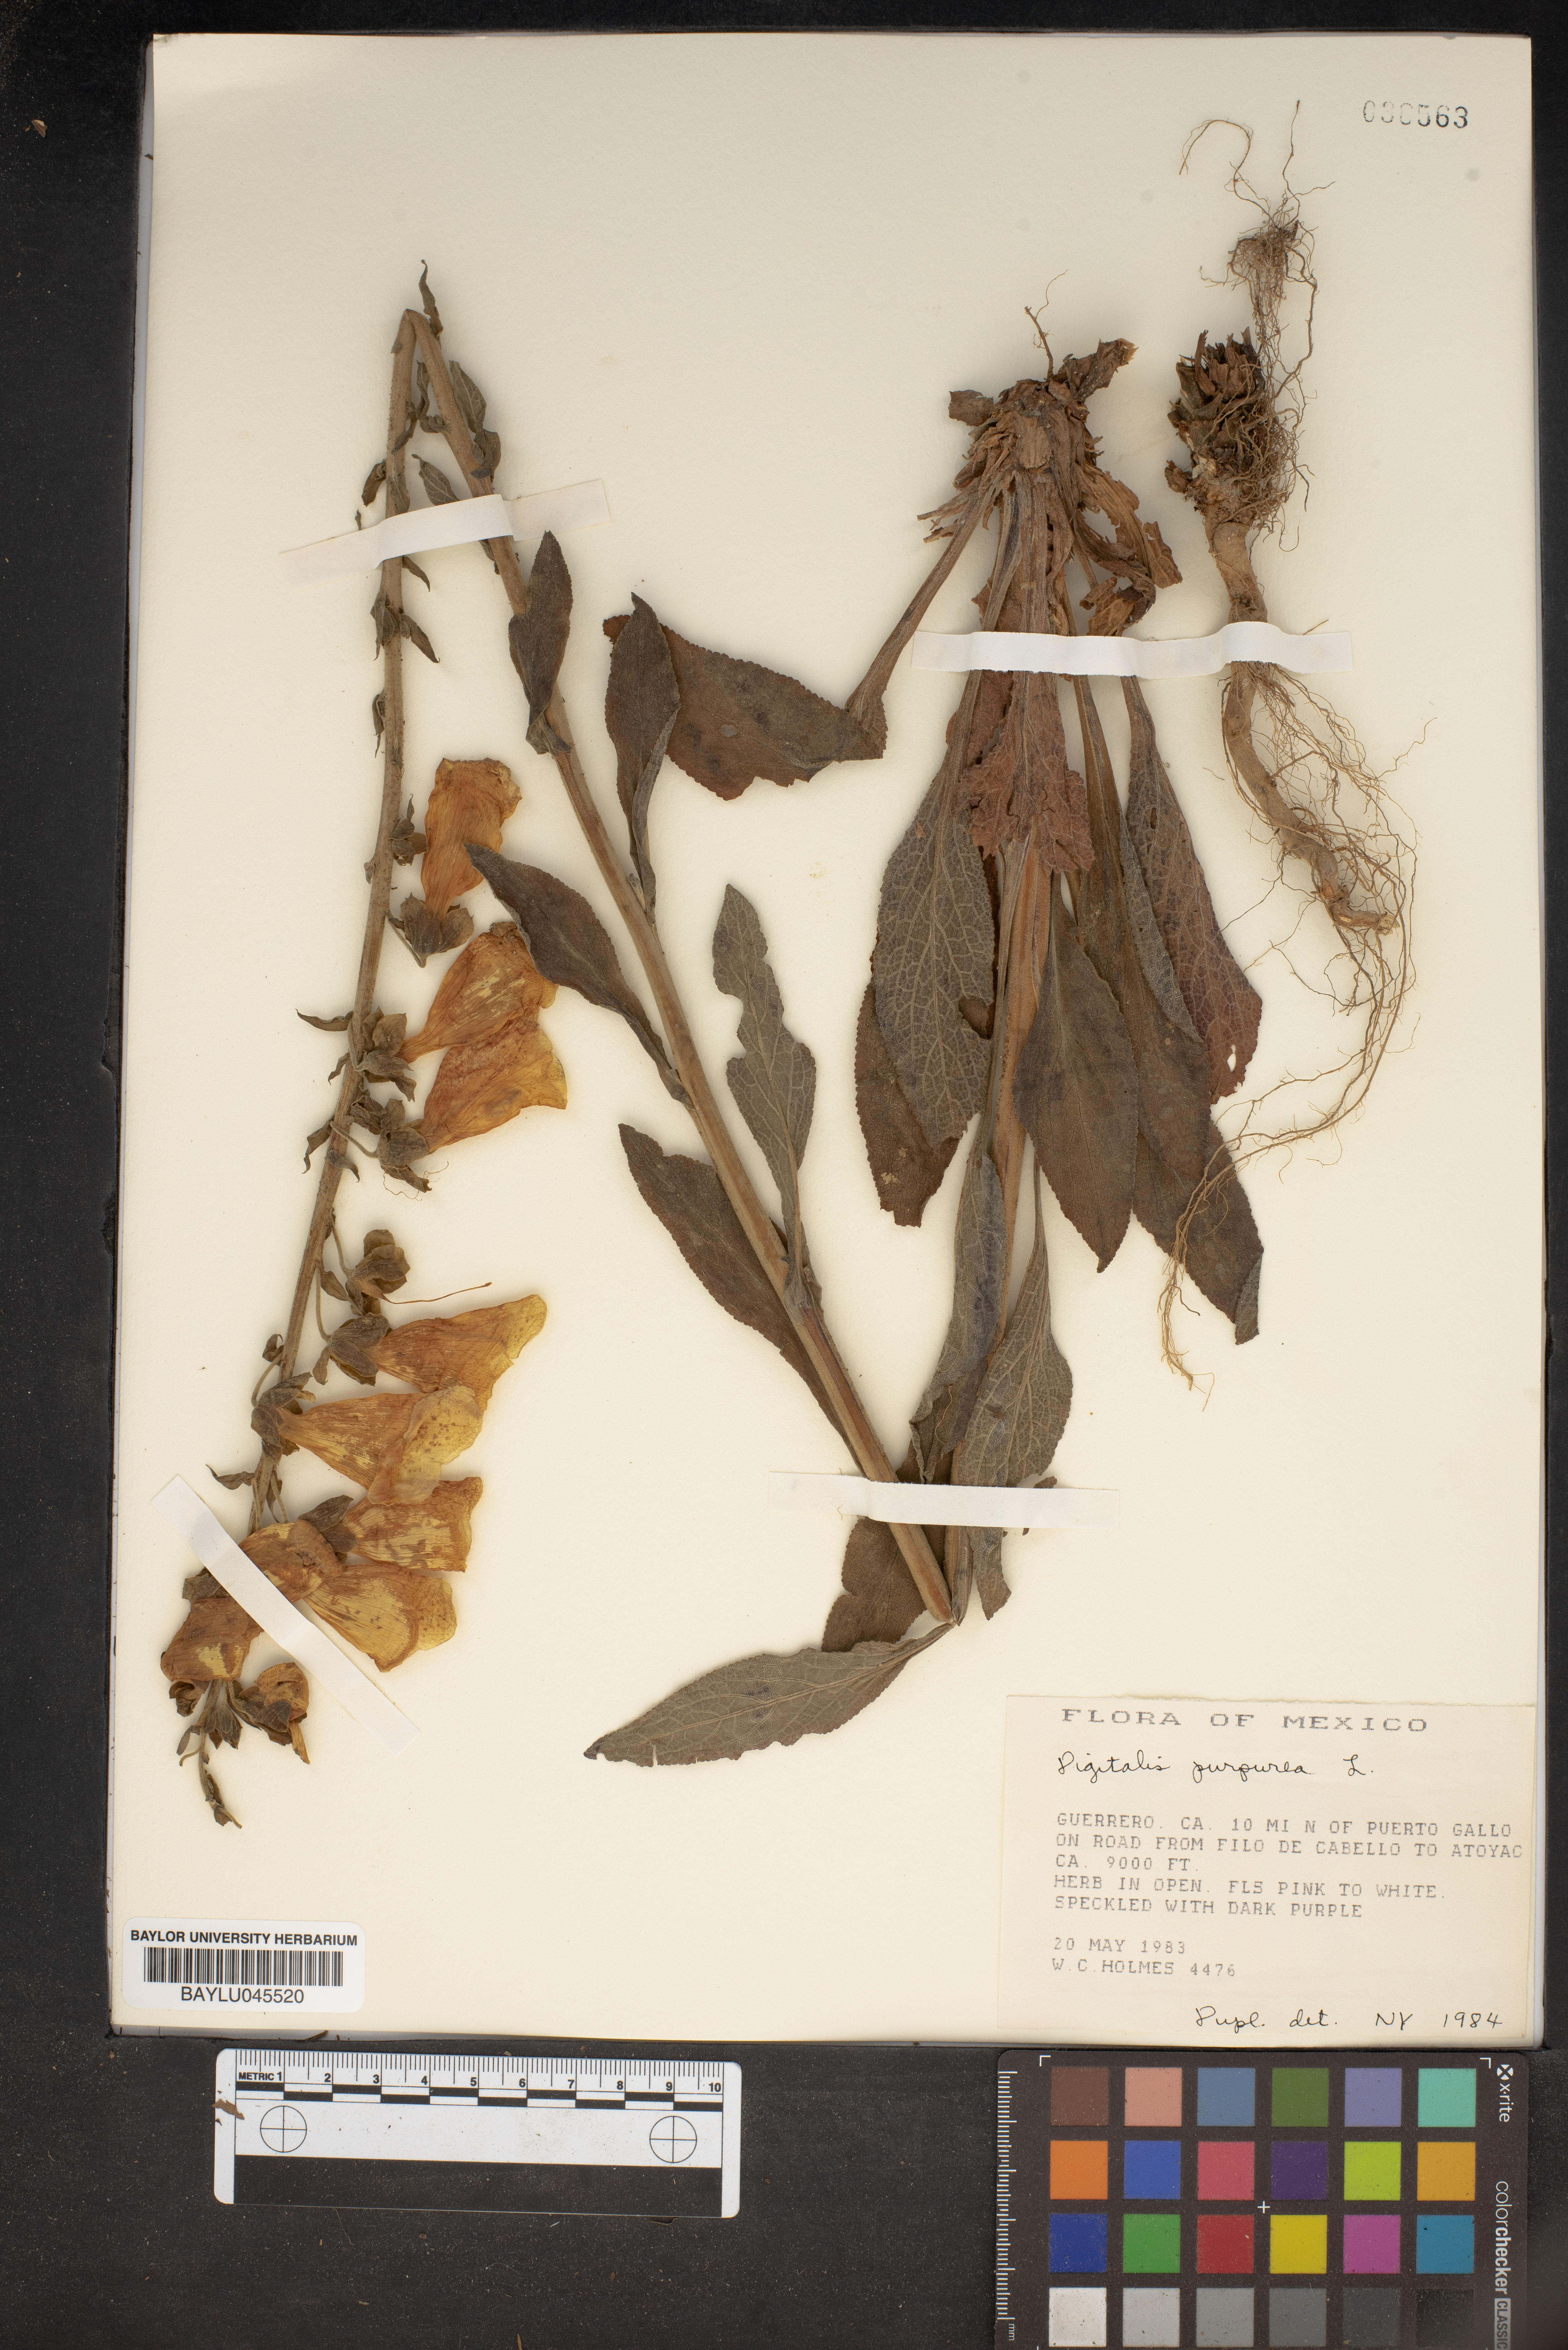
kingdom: Plantae
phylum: Tracheophyta
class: Magnoliopsida
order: Lamiales
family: Plantaginaceae
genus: Digitalis
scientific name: Digitalis purpurea
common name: Foxglove
